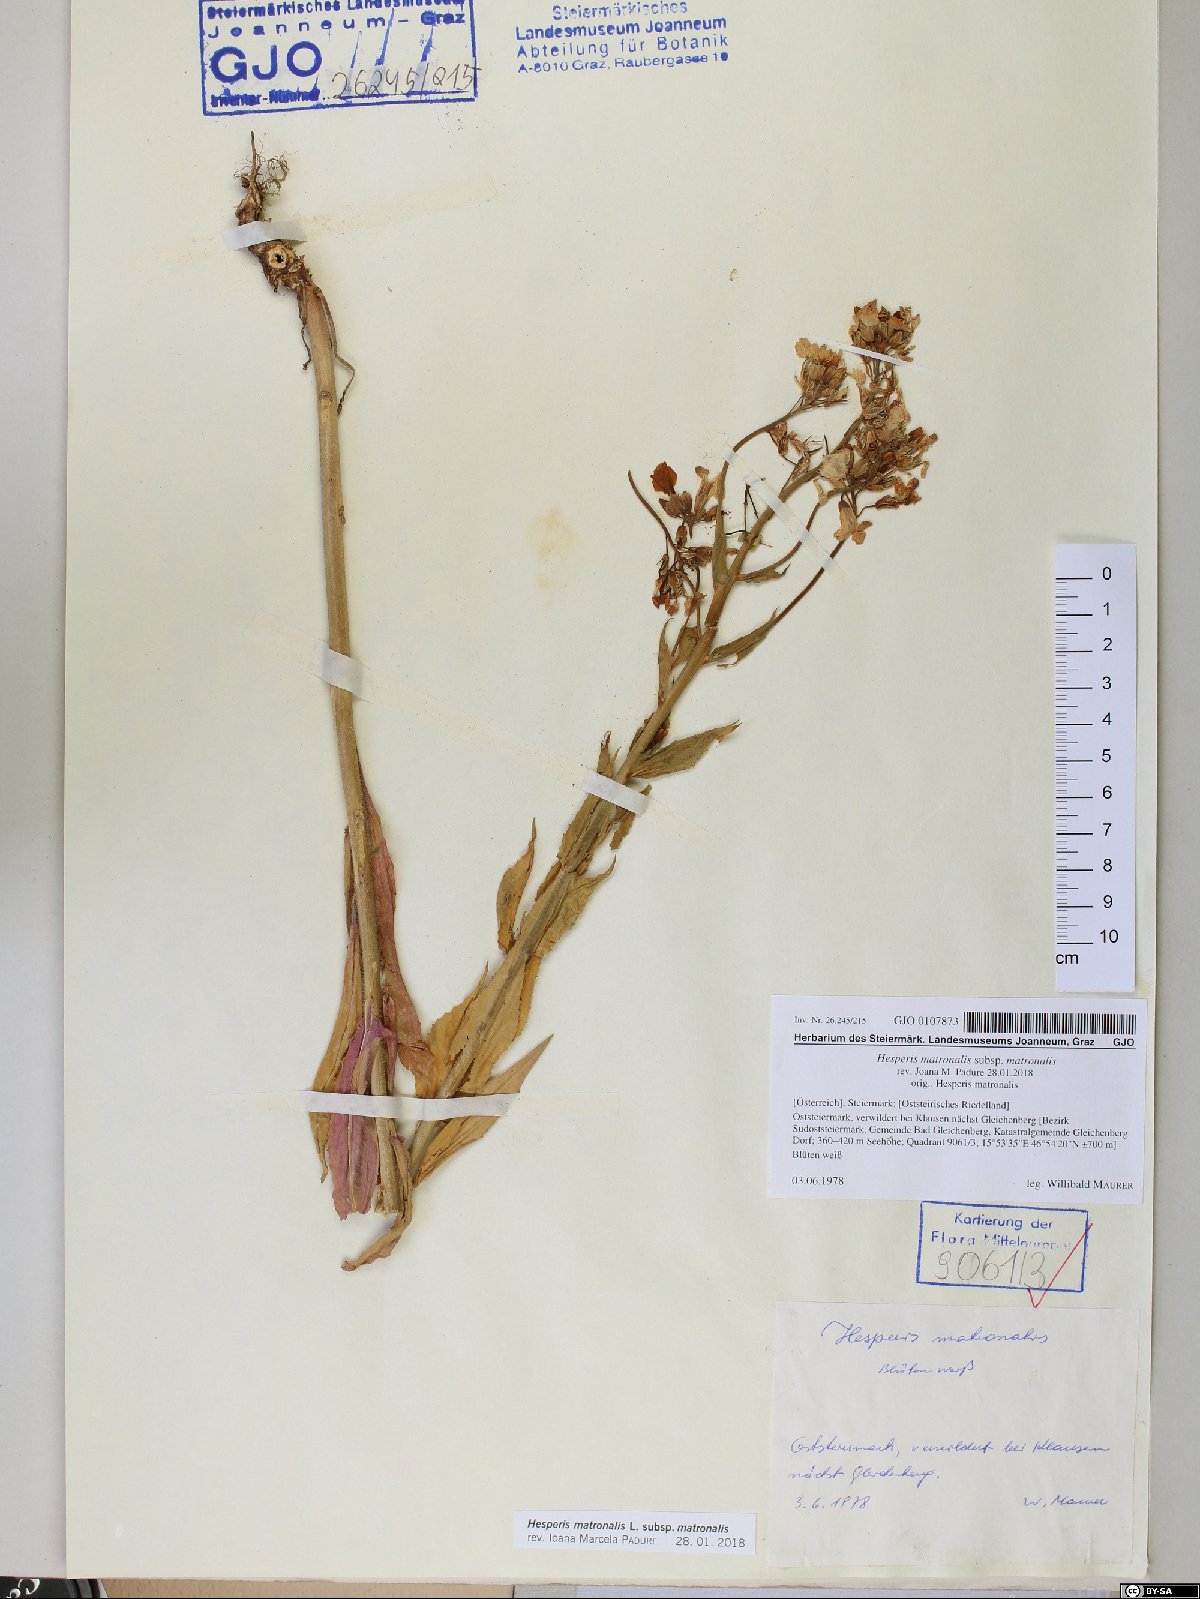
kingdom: Plantae
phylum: Tracheophyta
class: Magnoliopsida
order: Brassicales
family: Brassicaceae
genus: Hesperis
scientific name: Hesperis matronalis
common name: Dame's-violet
